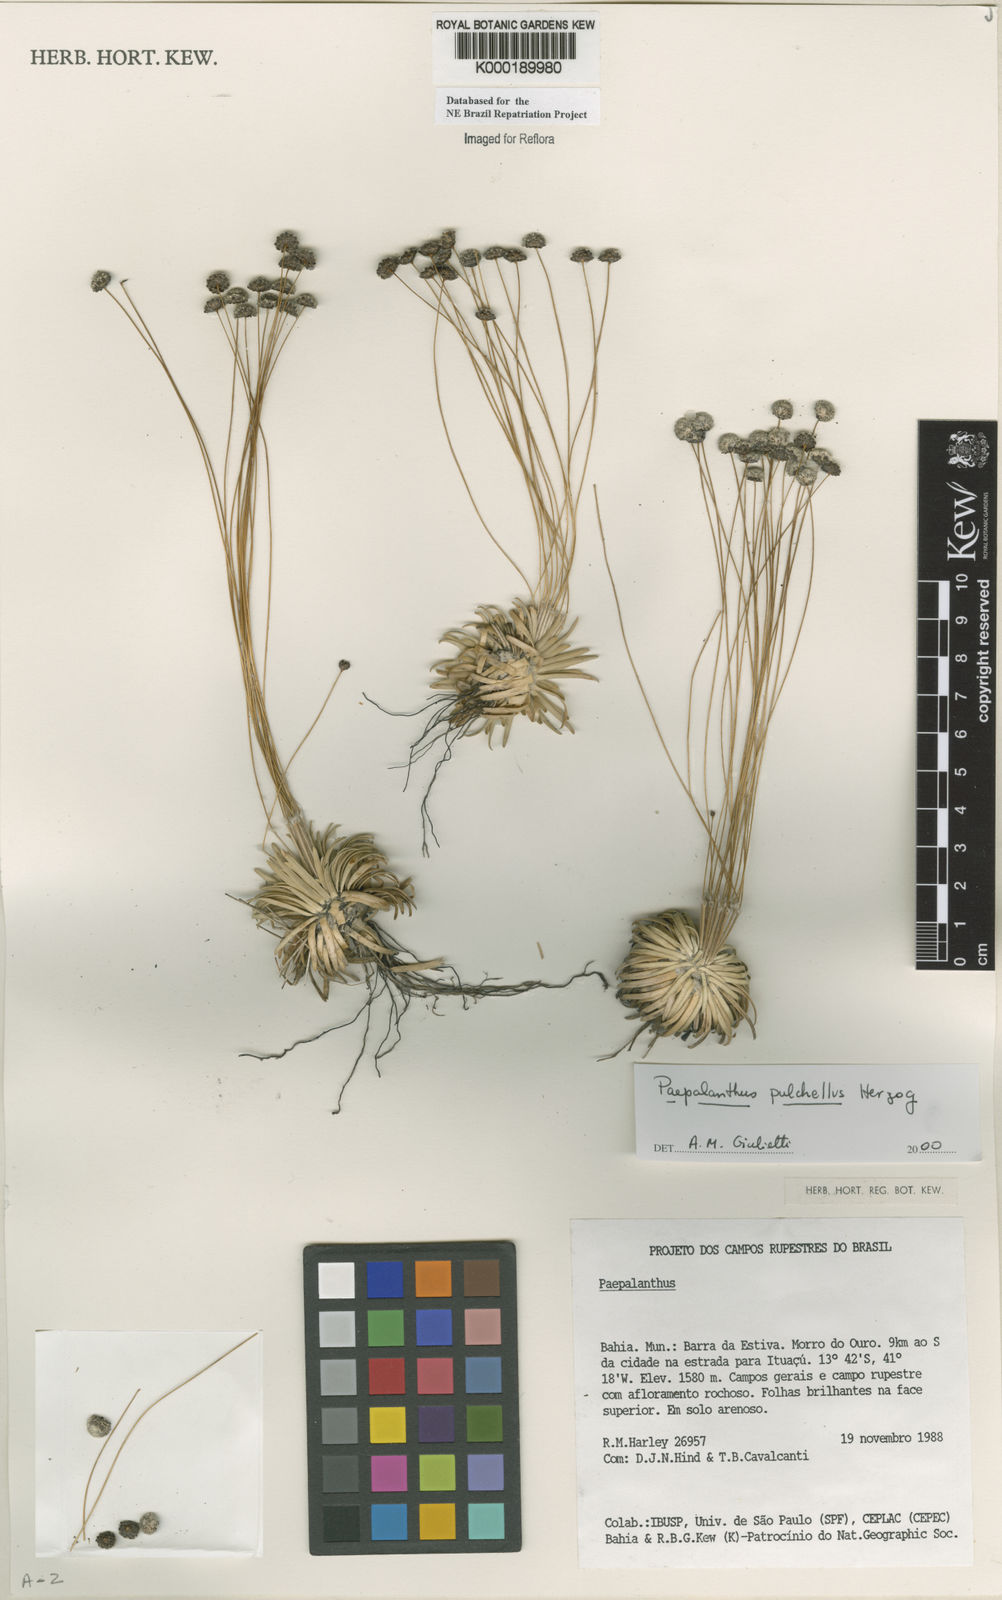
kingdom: Plantae
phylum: Tracheophyta
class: Liliopsida
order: Poales
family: Eriocaulaceae
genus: Paepalanthus
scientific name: Paepalanthus pulchellus
